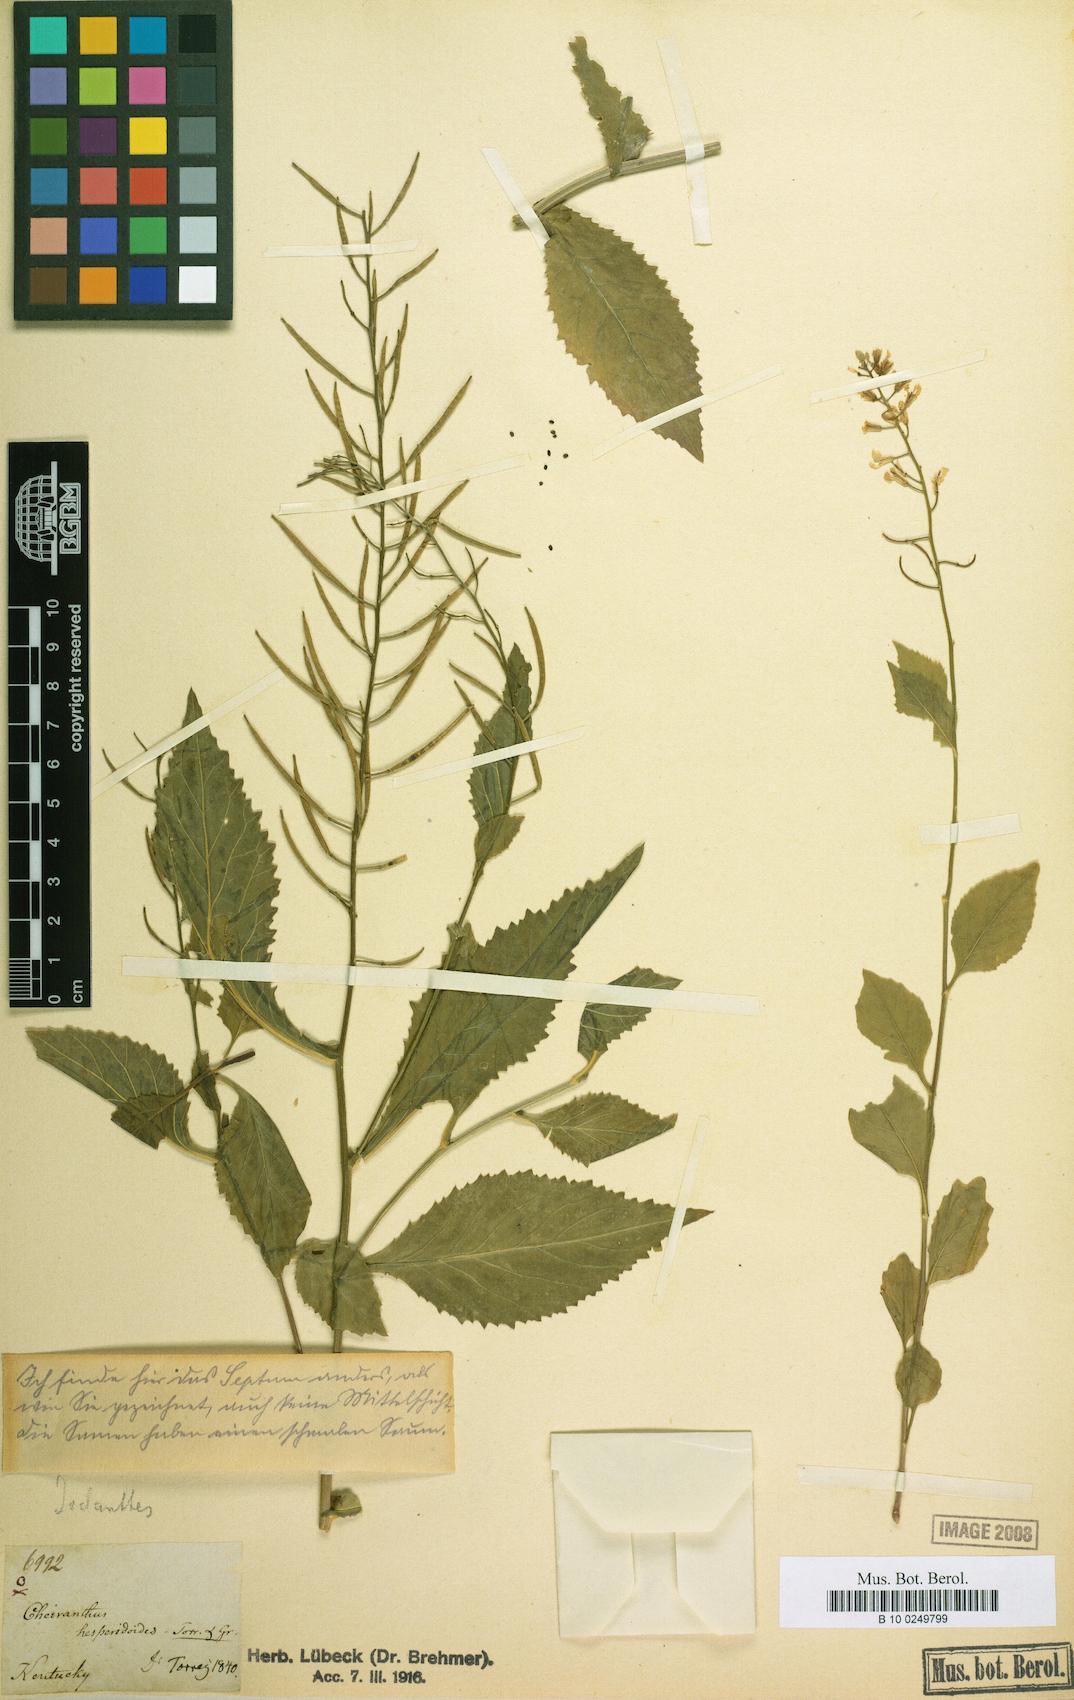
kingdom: Plantae
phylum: Tracheophyta
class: Magnoliopsida
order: Brassicales
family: Brassicaceae
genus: Iodanthus
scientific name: Iodanthus pinnatifidus
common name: Violet rocket
